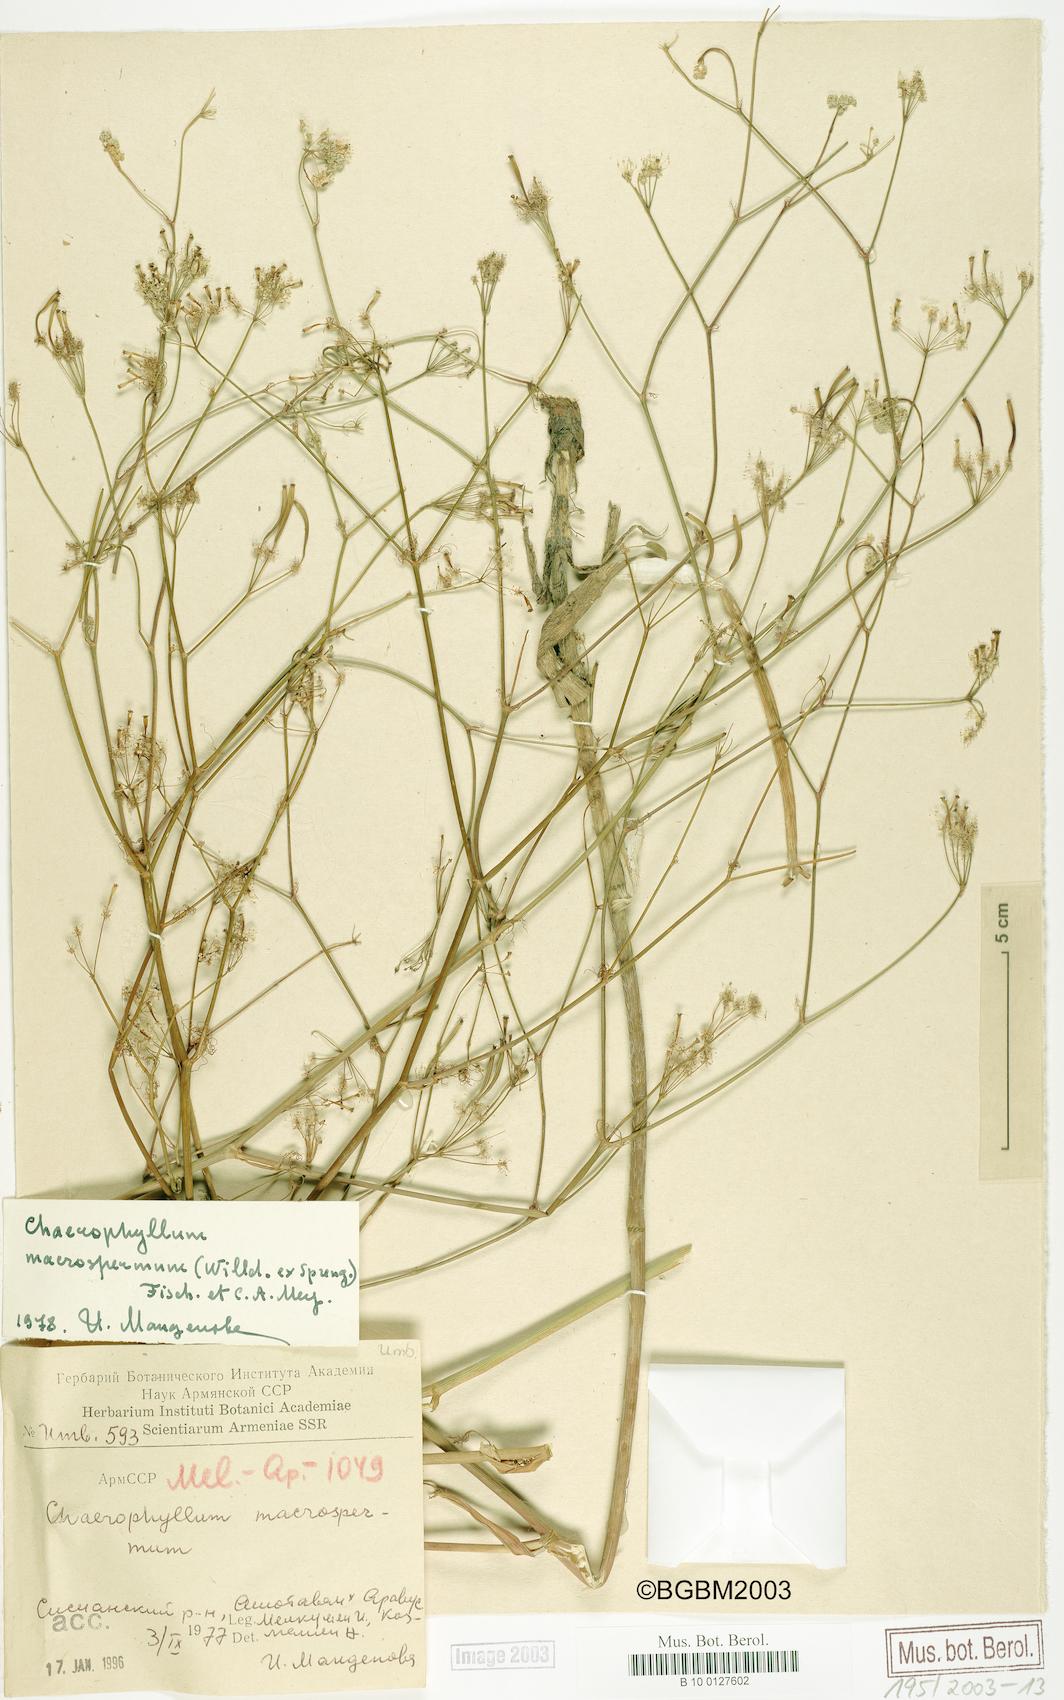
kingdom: Plantae
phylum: Tracheophyta
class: Magnoliopsida
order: Apiales
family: Apiaceae
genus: Chaerophyllum
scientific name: Chaerophyllum macrospermum
